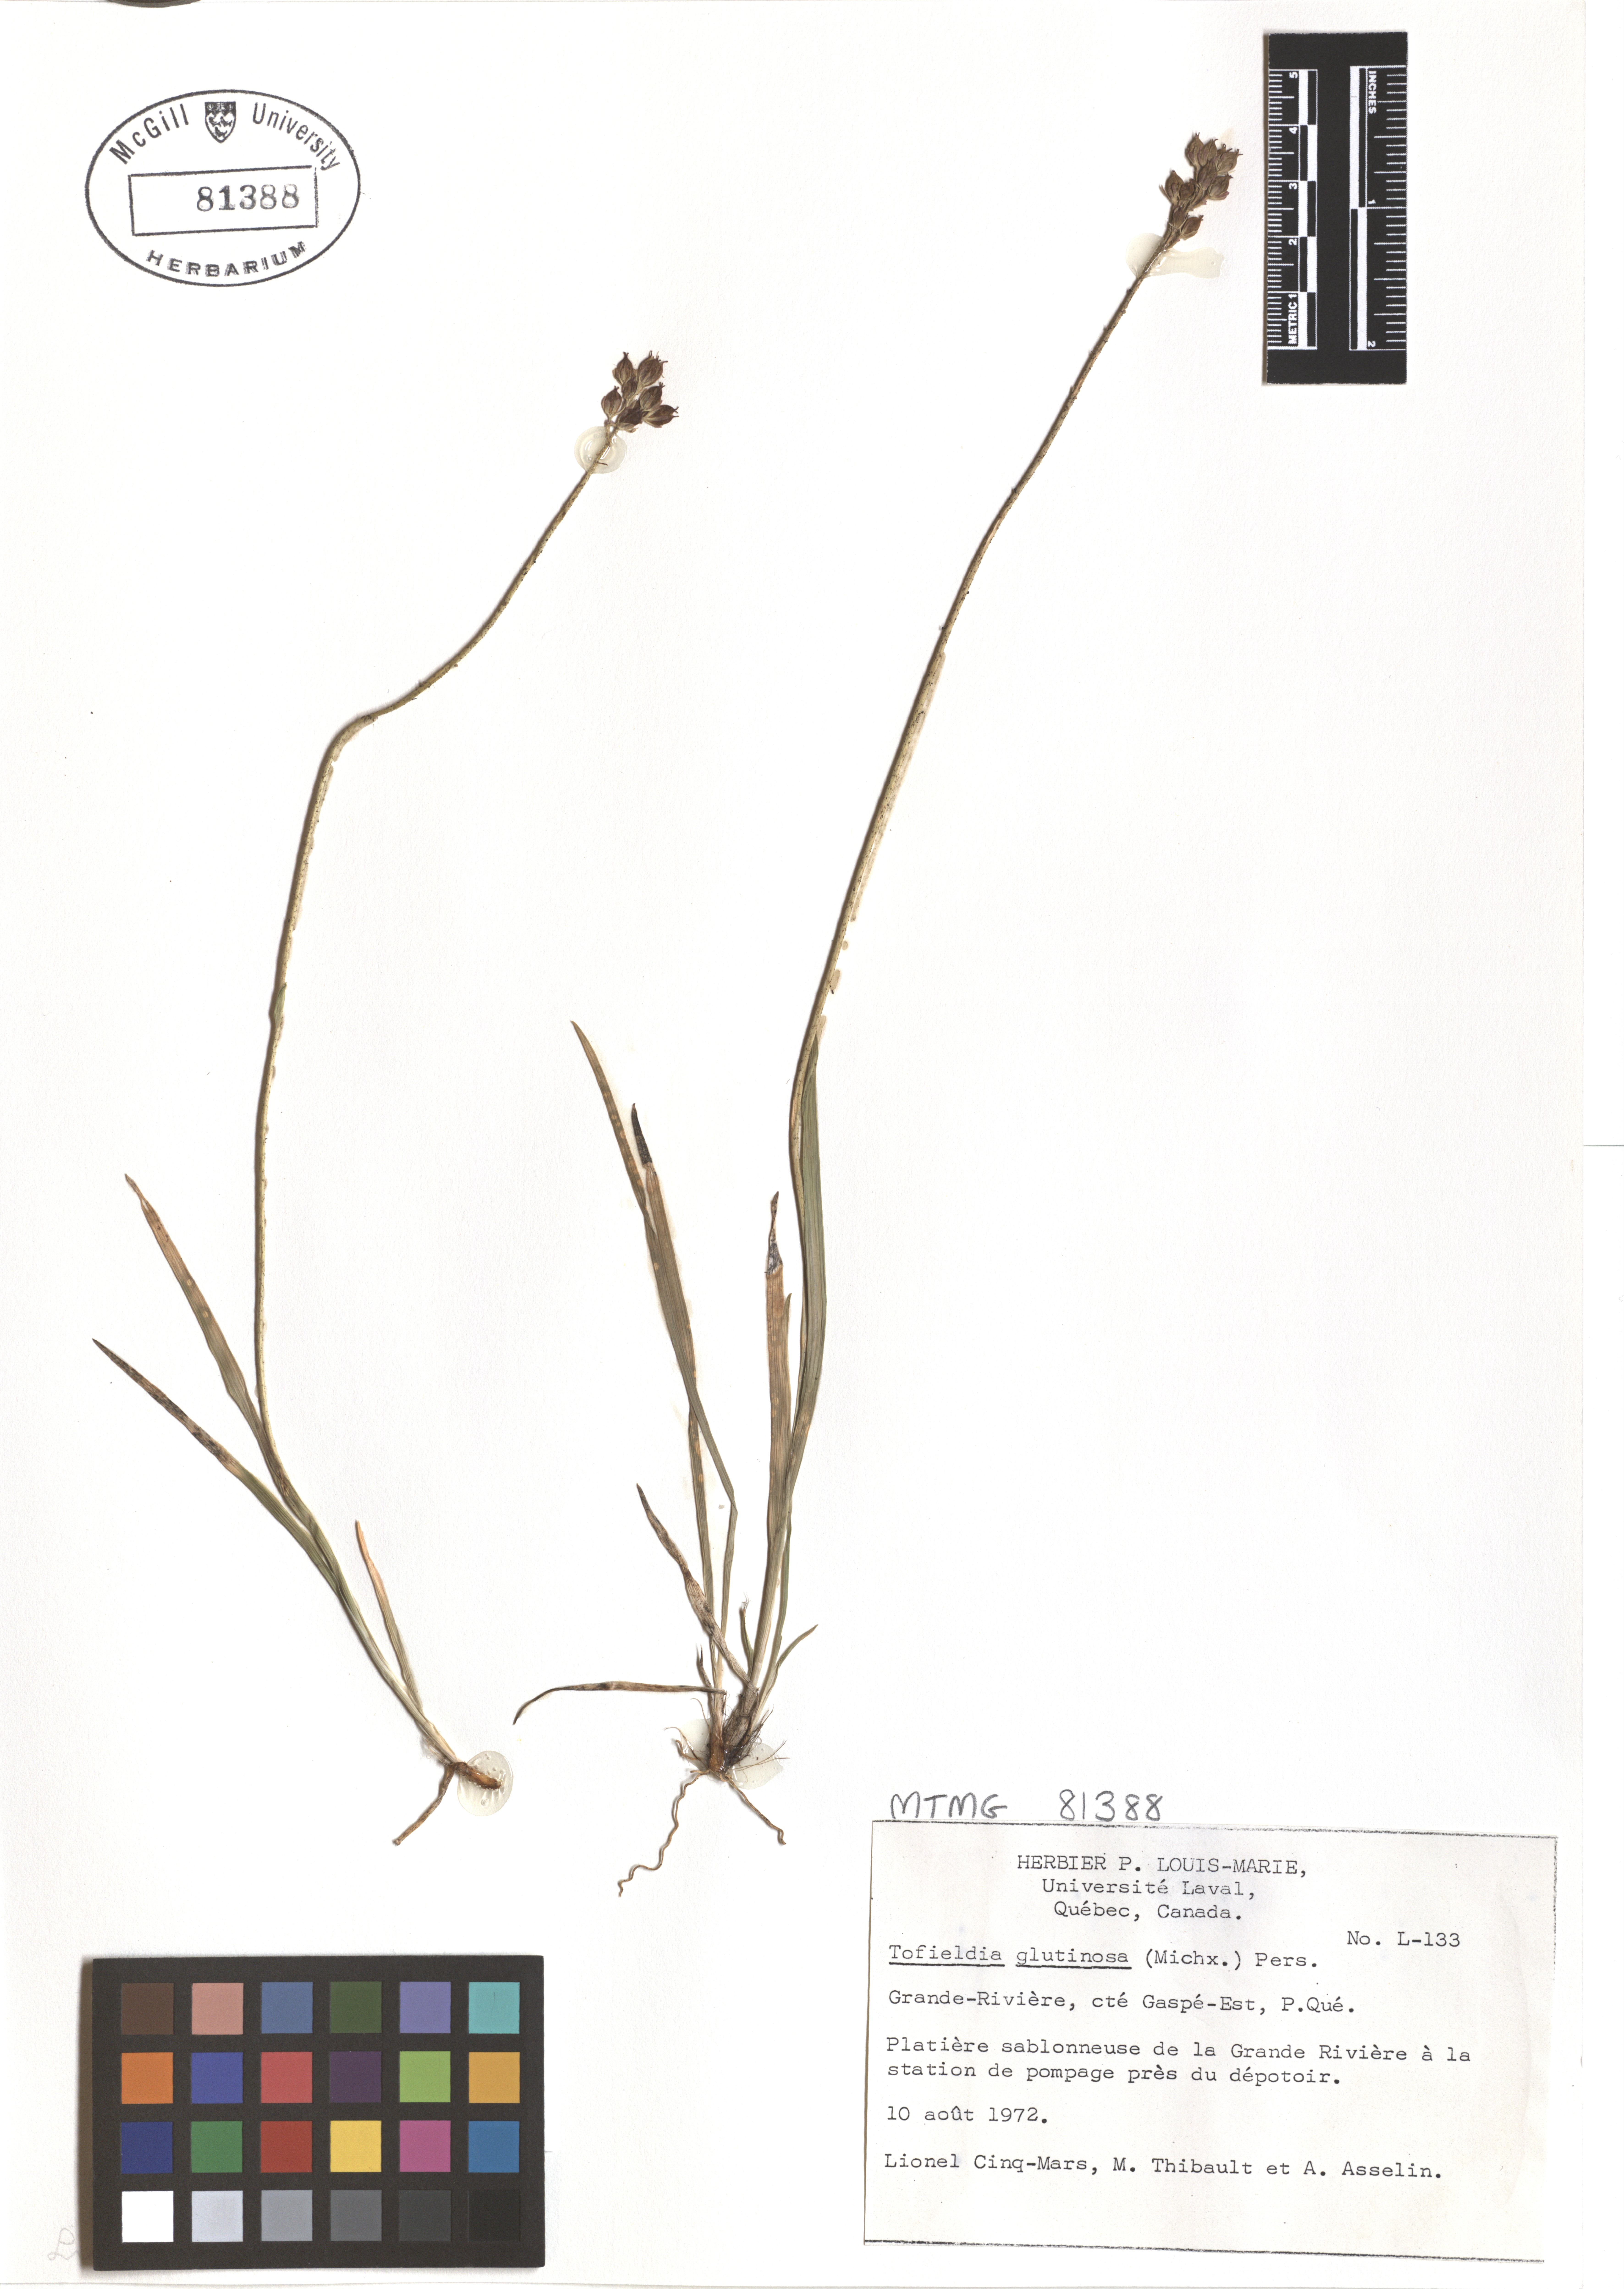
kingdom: Plantae
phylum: Tracheophyta
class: Liliopsida
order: Alismatales
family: Tofieldiaceae
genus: Triantha
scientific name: Triantha glutinosa
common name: Glutinous tofieldia
